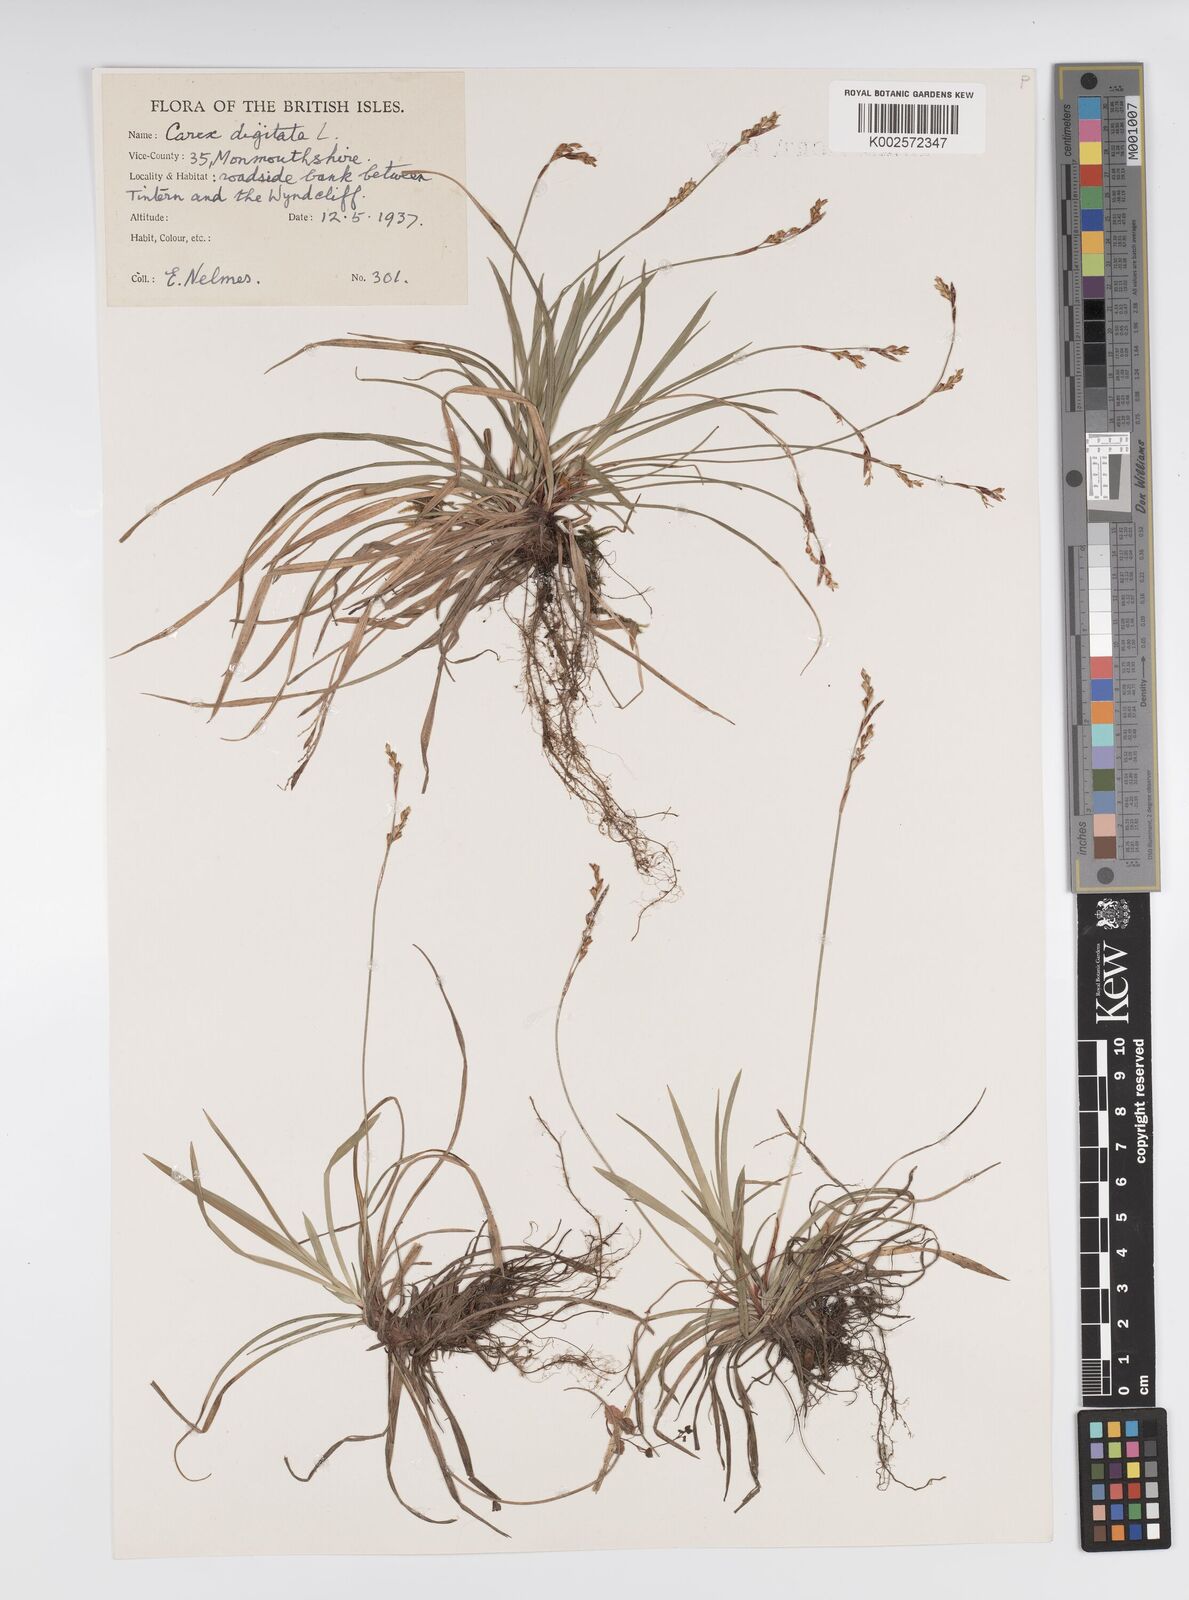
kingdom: Plantae
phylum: Tracheophyta
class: Liliopsida
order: Poales
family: Cyperaceae
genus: Carex
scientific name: Carex digitata
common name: Fingered sedge
